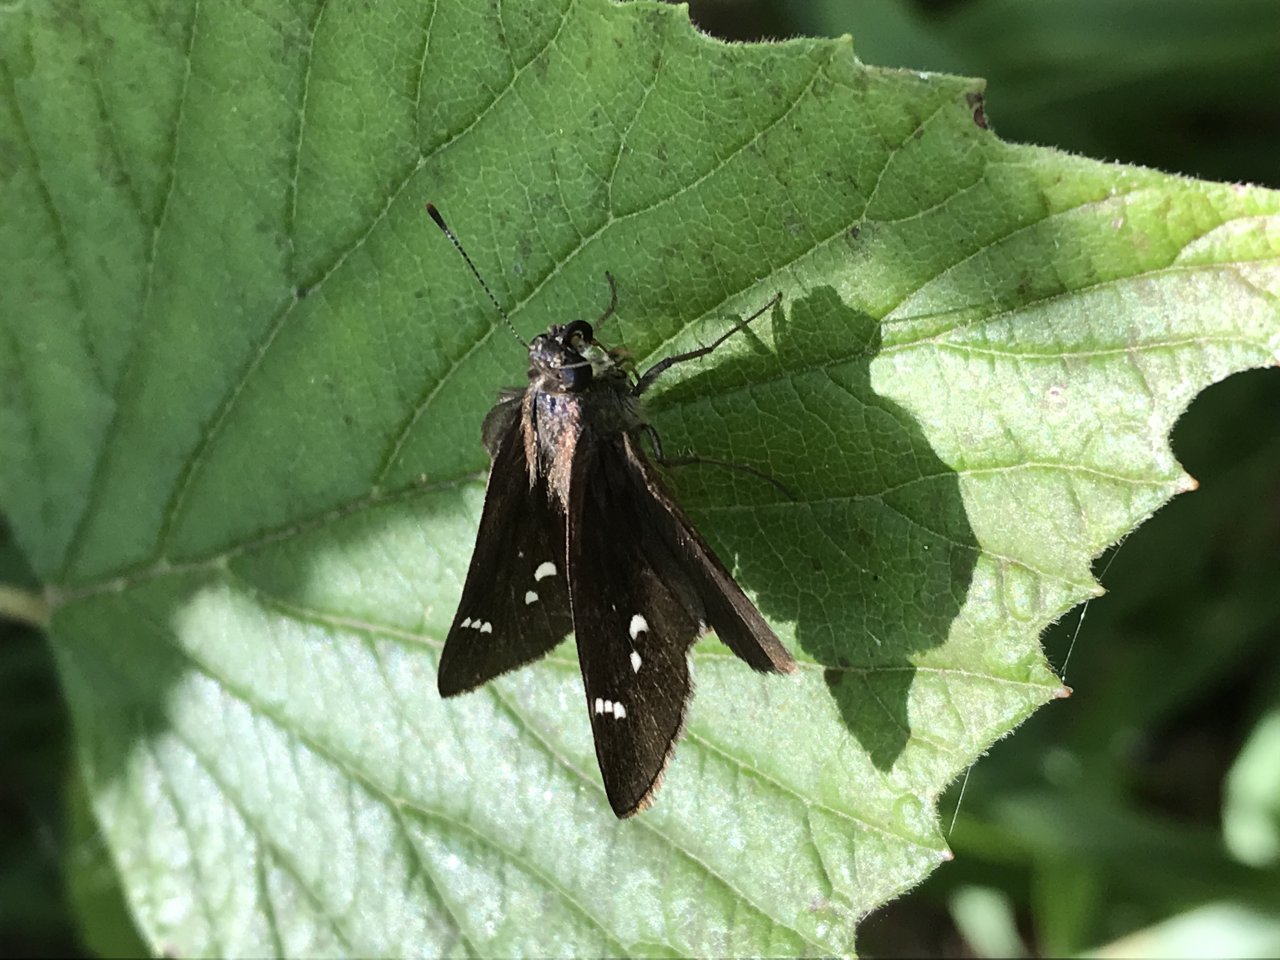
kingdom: Animalia
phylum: Arthropoda
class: Insecta
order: Lepidoptera
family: Hesperiidae
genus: Lerema
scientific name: Lerema accius
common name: Clouded Skipper
